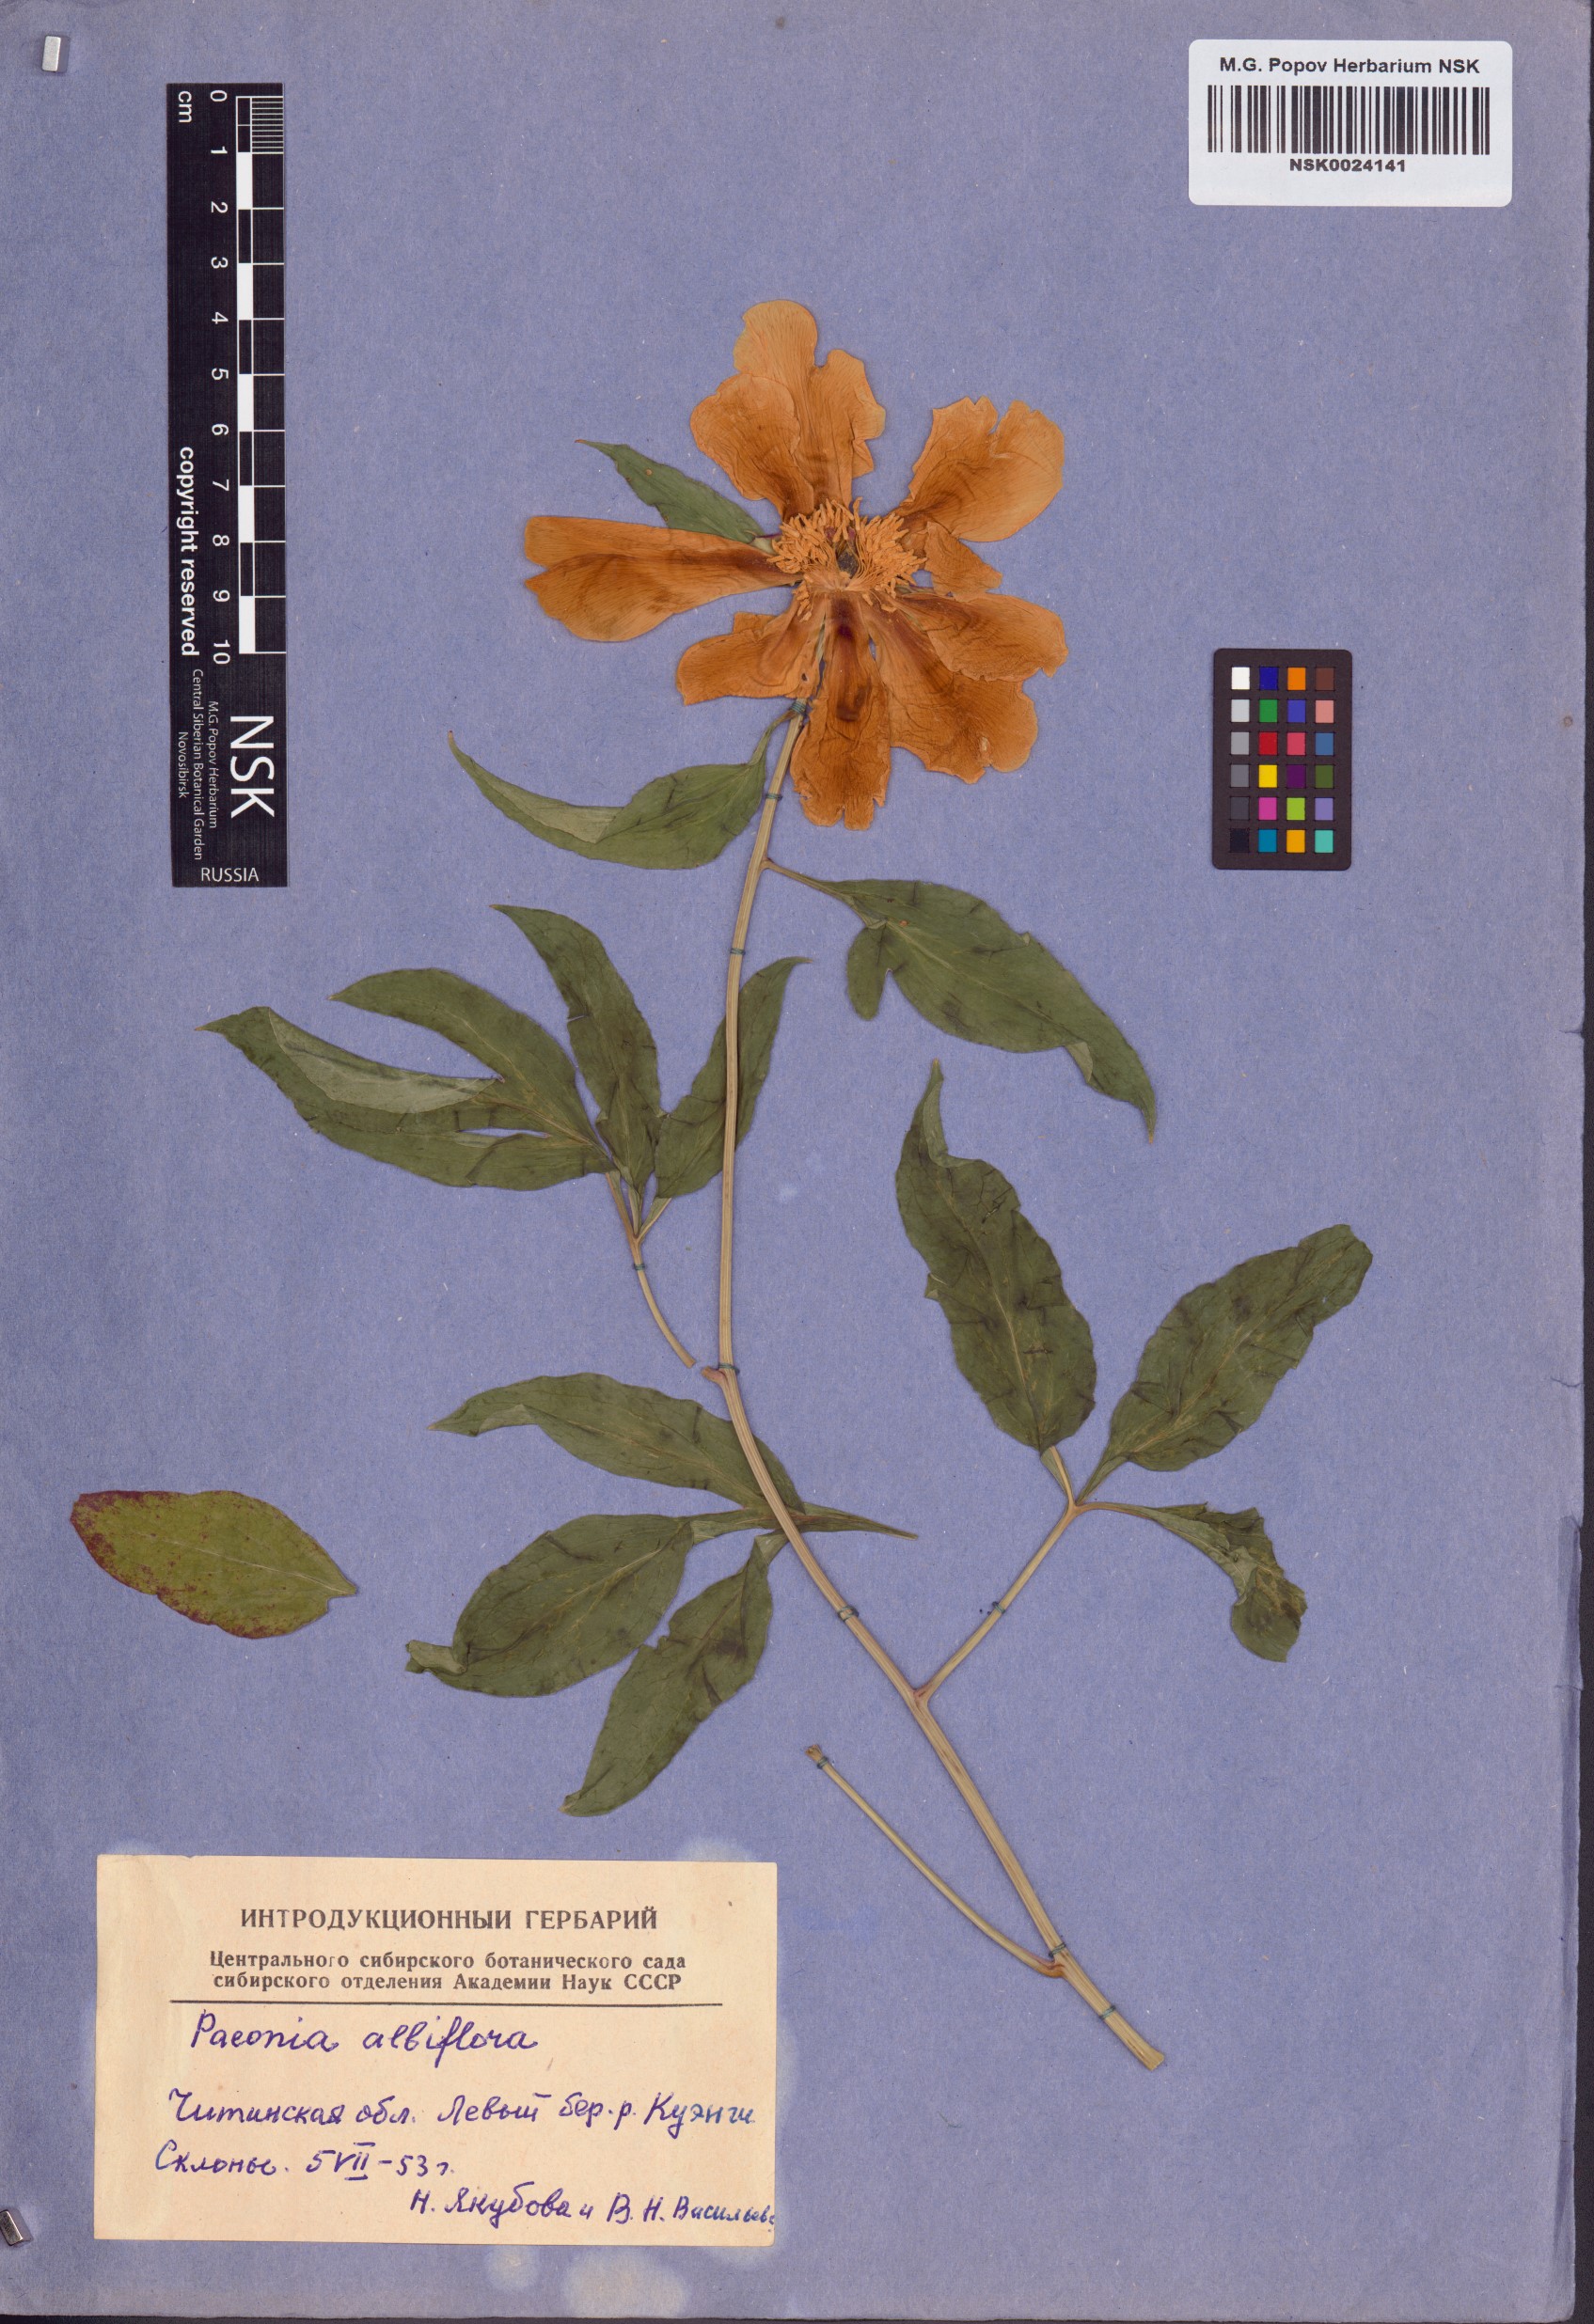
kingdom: Plantae
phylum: Tracheophyta
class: Magnoliopsida
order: Saxifragales
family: Paeoniaceae
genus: Paeonia
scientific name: Paeonia lactiflora
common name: Chinese peony
